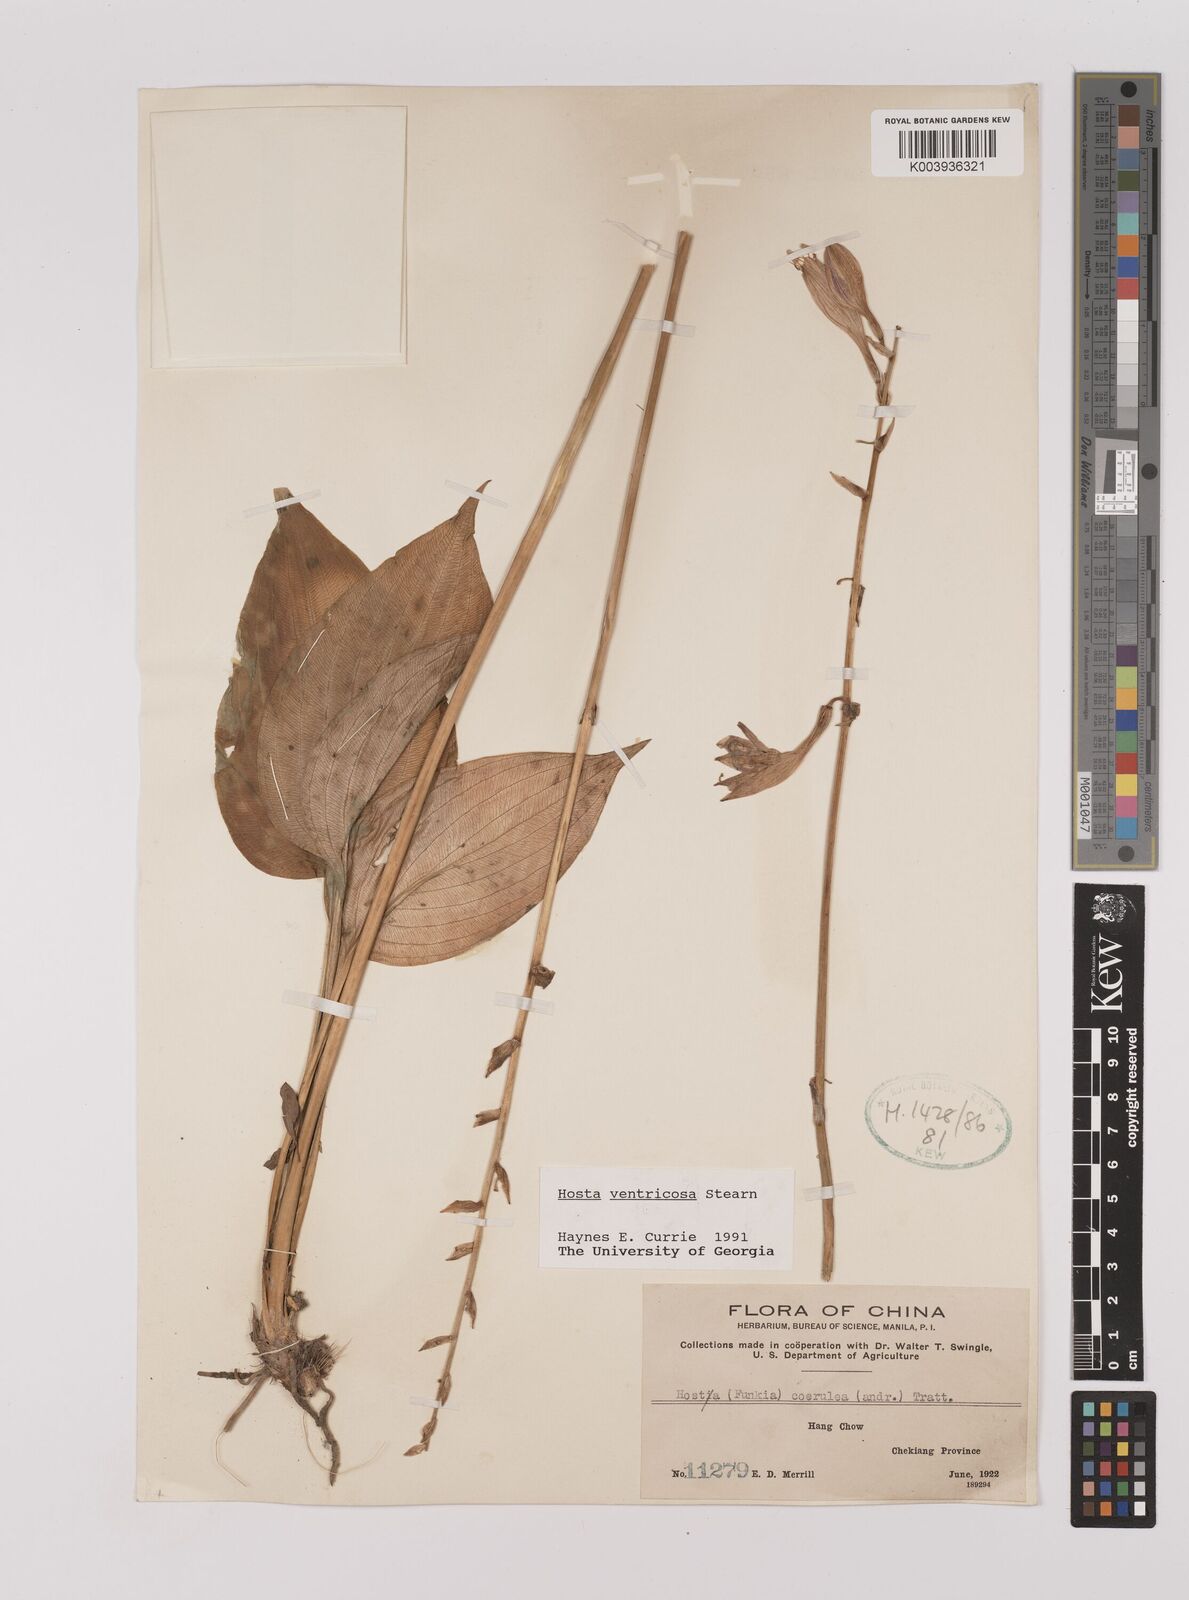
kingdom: Plantae
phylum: Tracheophyta
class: Liliopsida
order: Asparagales
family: Asparagaceae
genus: Hosta
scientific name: Hosta ventricosa
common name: Blue plantain-lily
